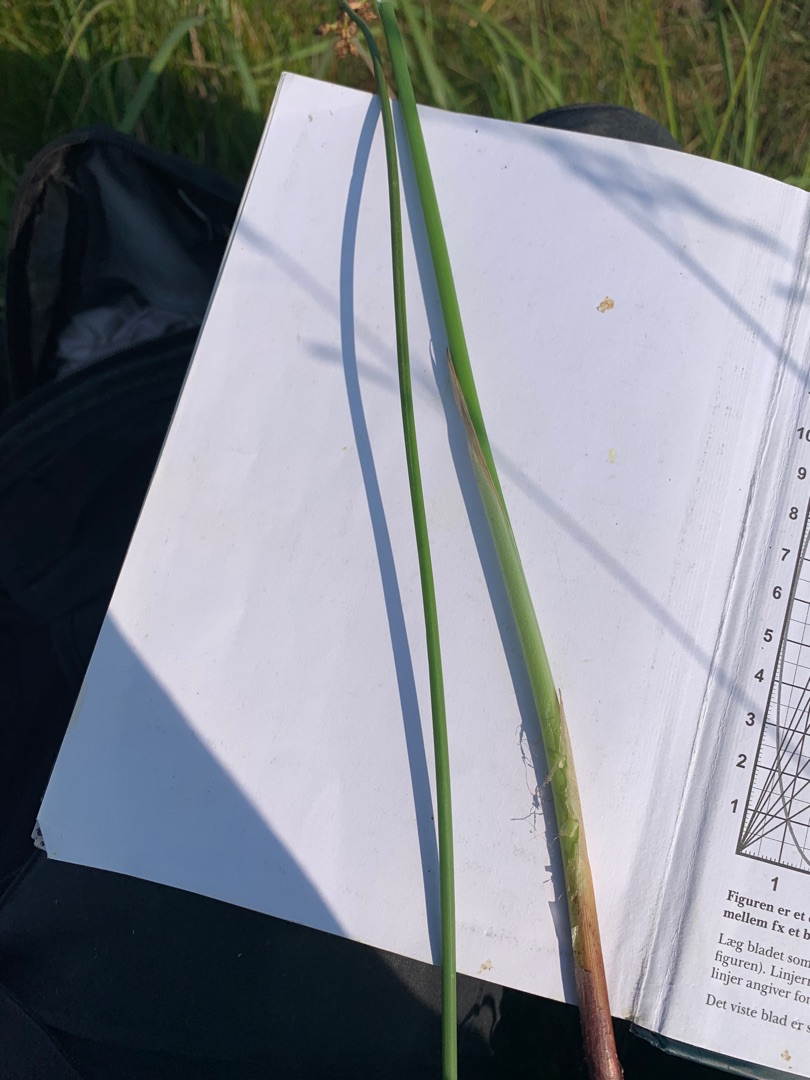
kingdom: Plantae
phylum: Tracheophyta
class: Liliopsida
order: Poales
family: Cyperaceae
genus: Schoenoplectus
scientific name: Schoenoplectus tabernaemontani
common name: Blågrøn kogleaks
